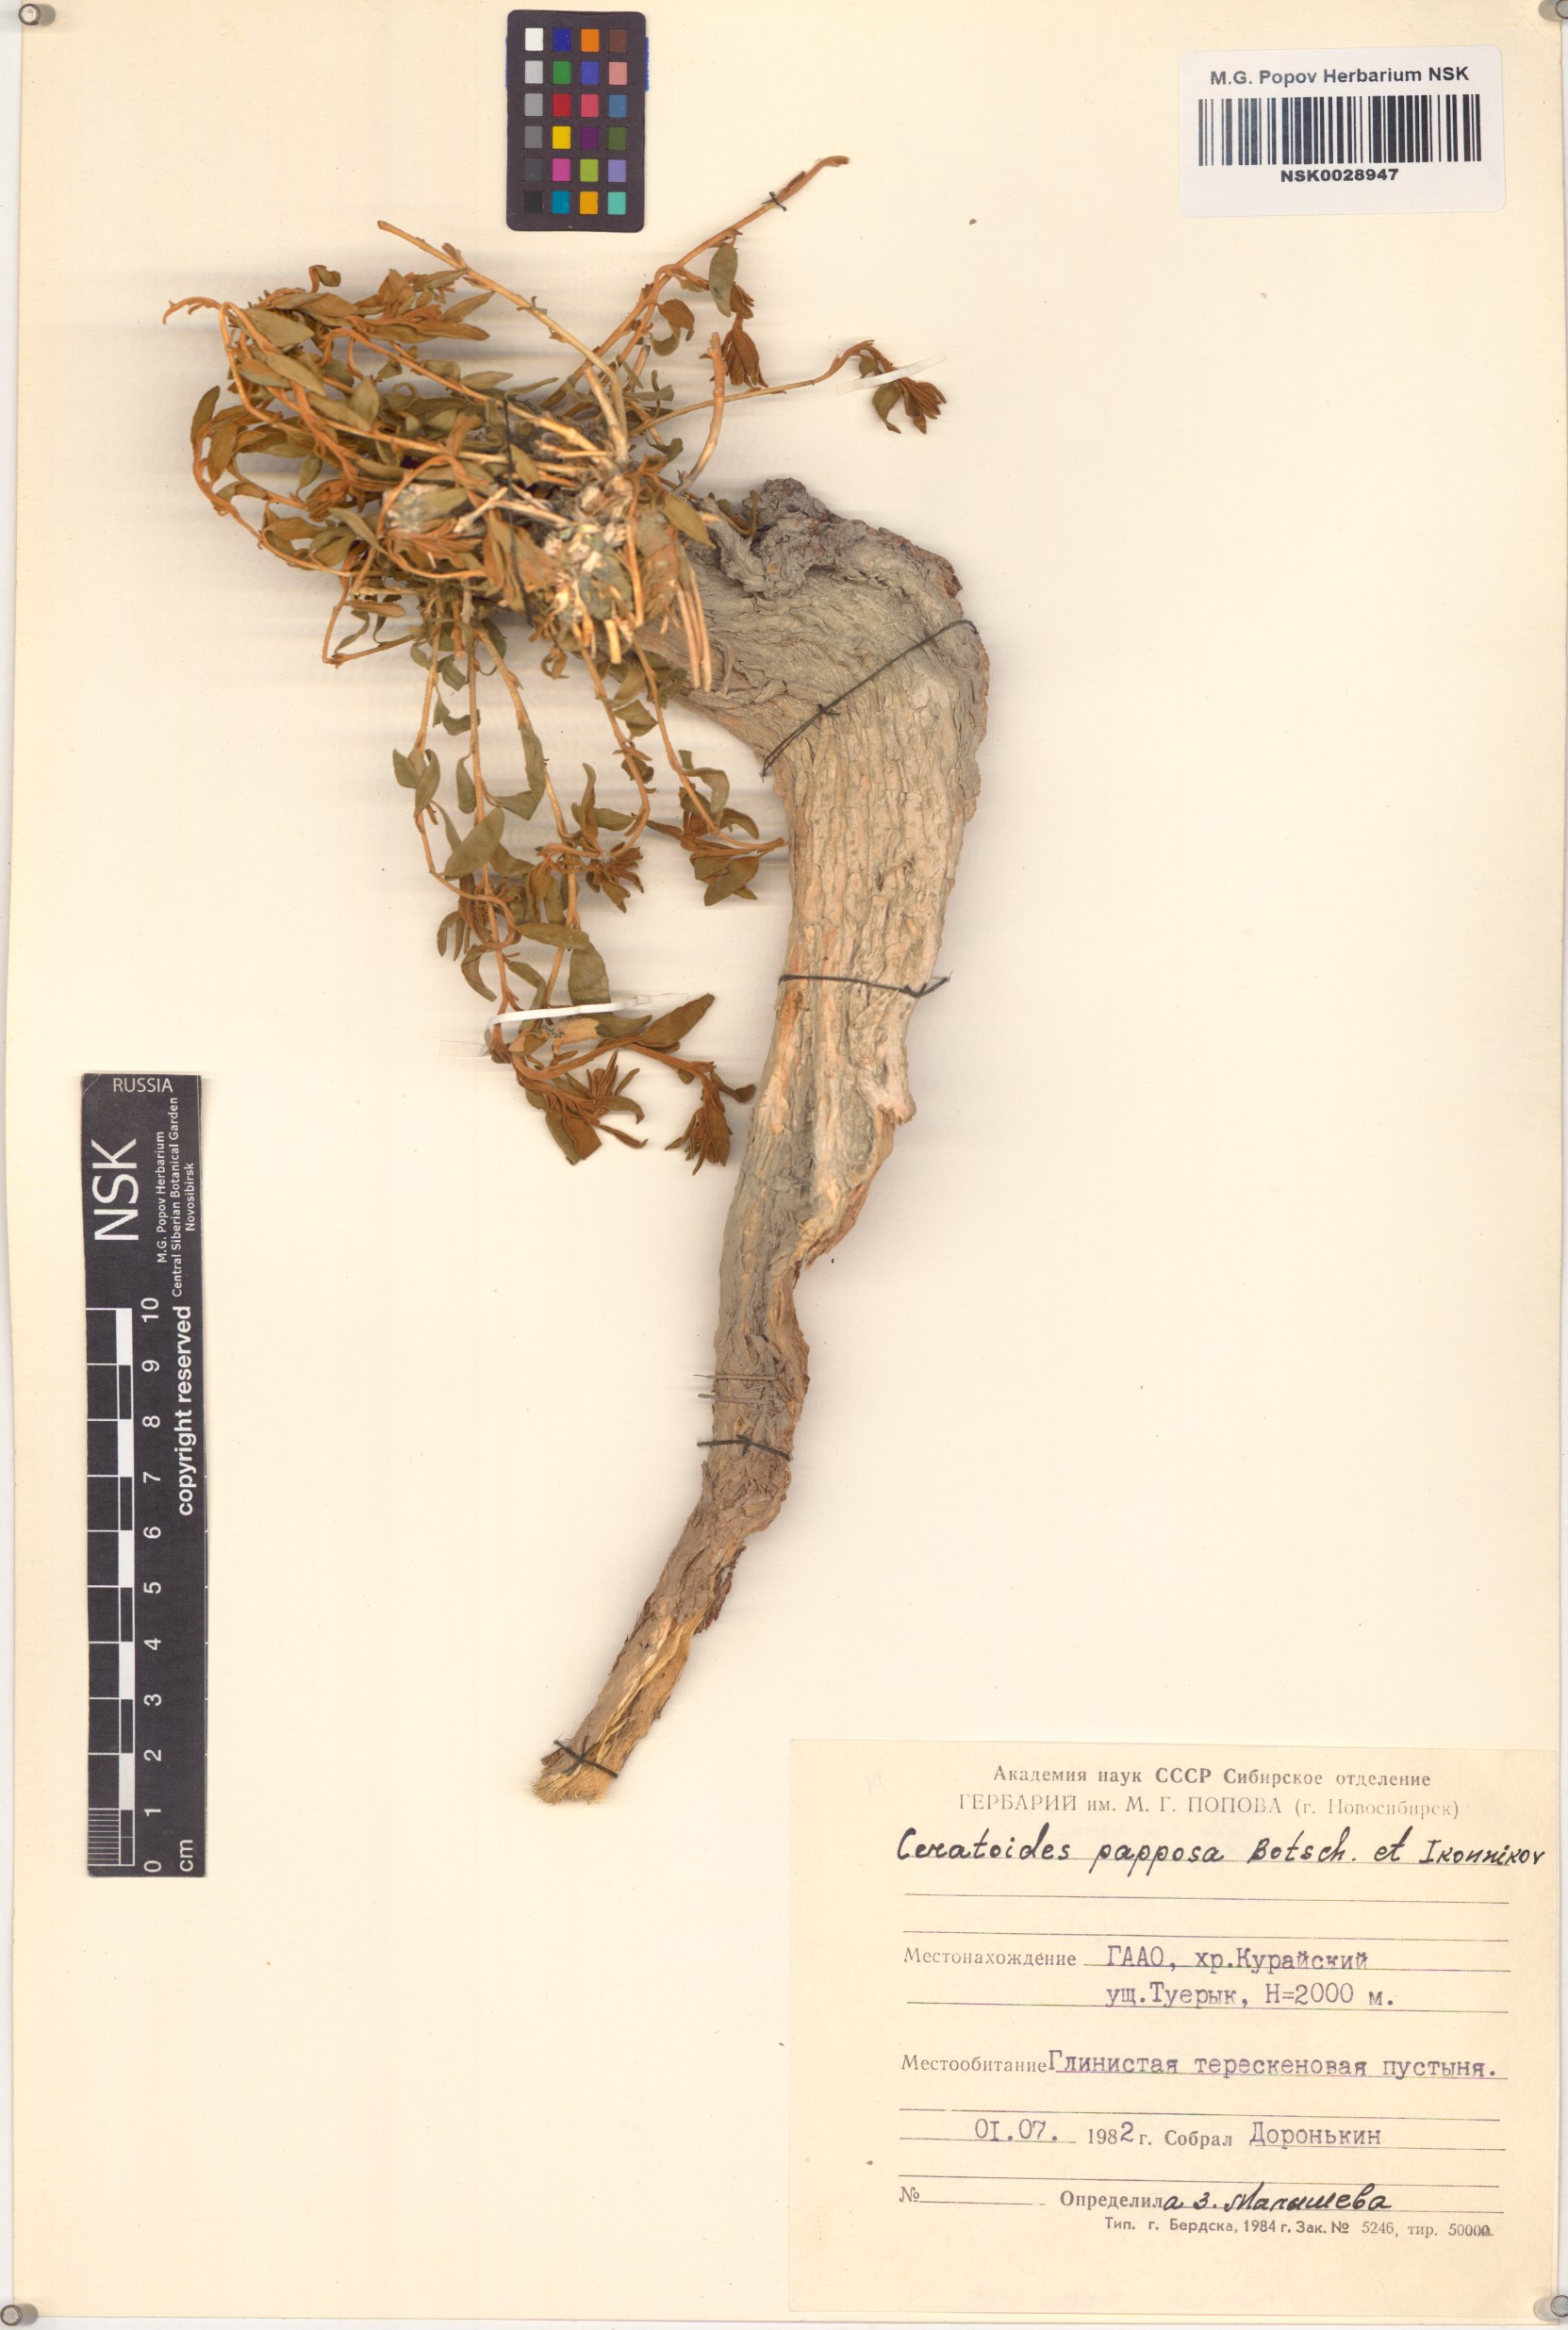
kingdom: Plantae
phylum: Tracheophyta
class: Magnoliopsida
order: Caryophyllales
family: Amaranthaceae
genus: Krascheninnikovia
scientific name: Krascheninnikovia ceratoides
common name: Pamirian winterfat
